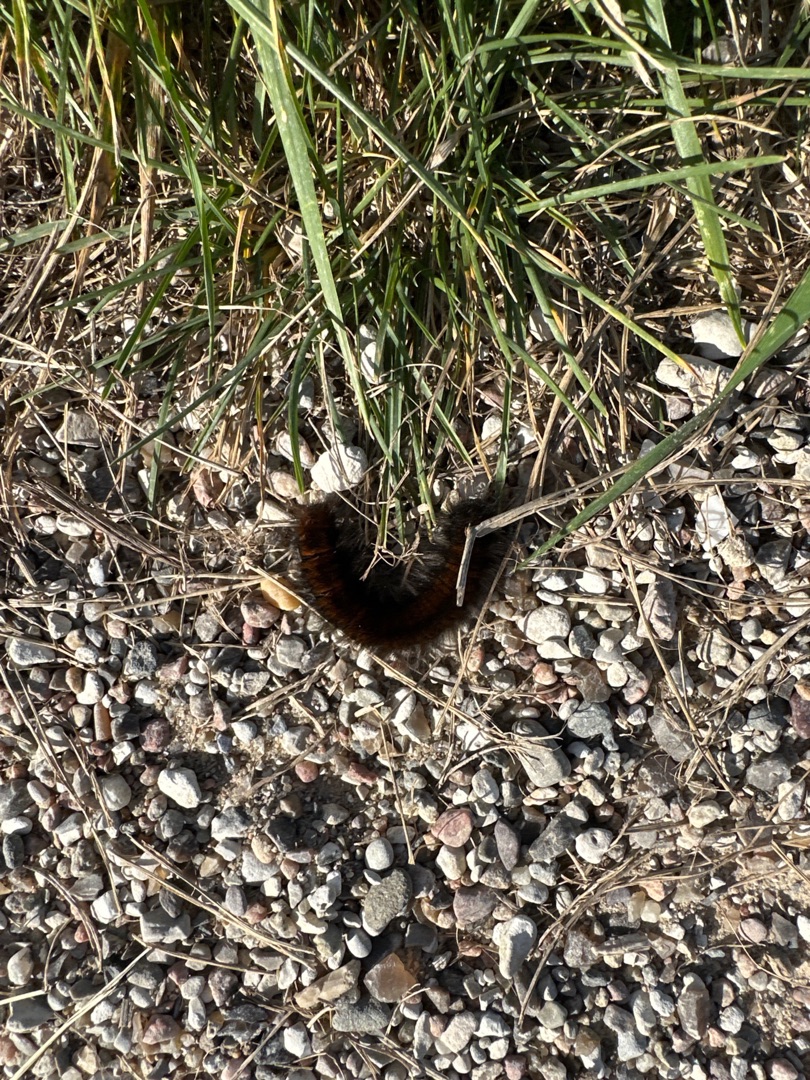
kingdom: Animalia
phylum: Arthropoda
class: Insecta
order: Lepidoptera
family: Lasiocampidae
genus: Macrothylacia
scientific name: Macrothylacia rubi
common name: Brombærspinder
